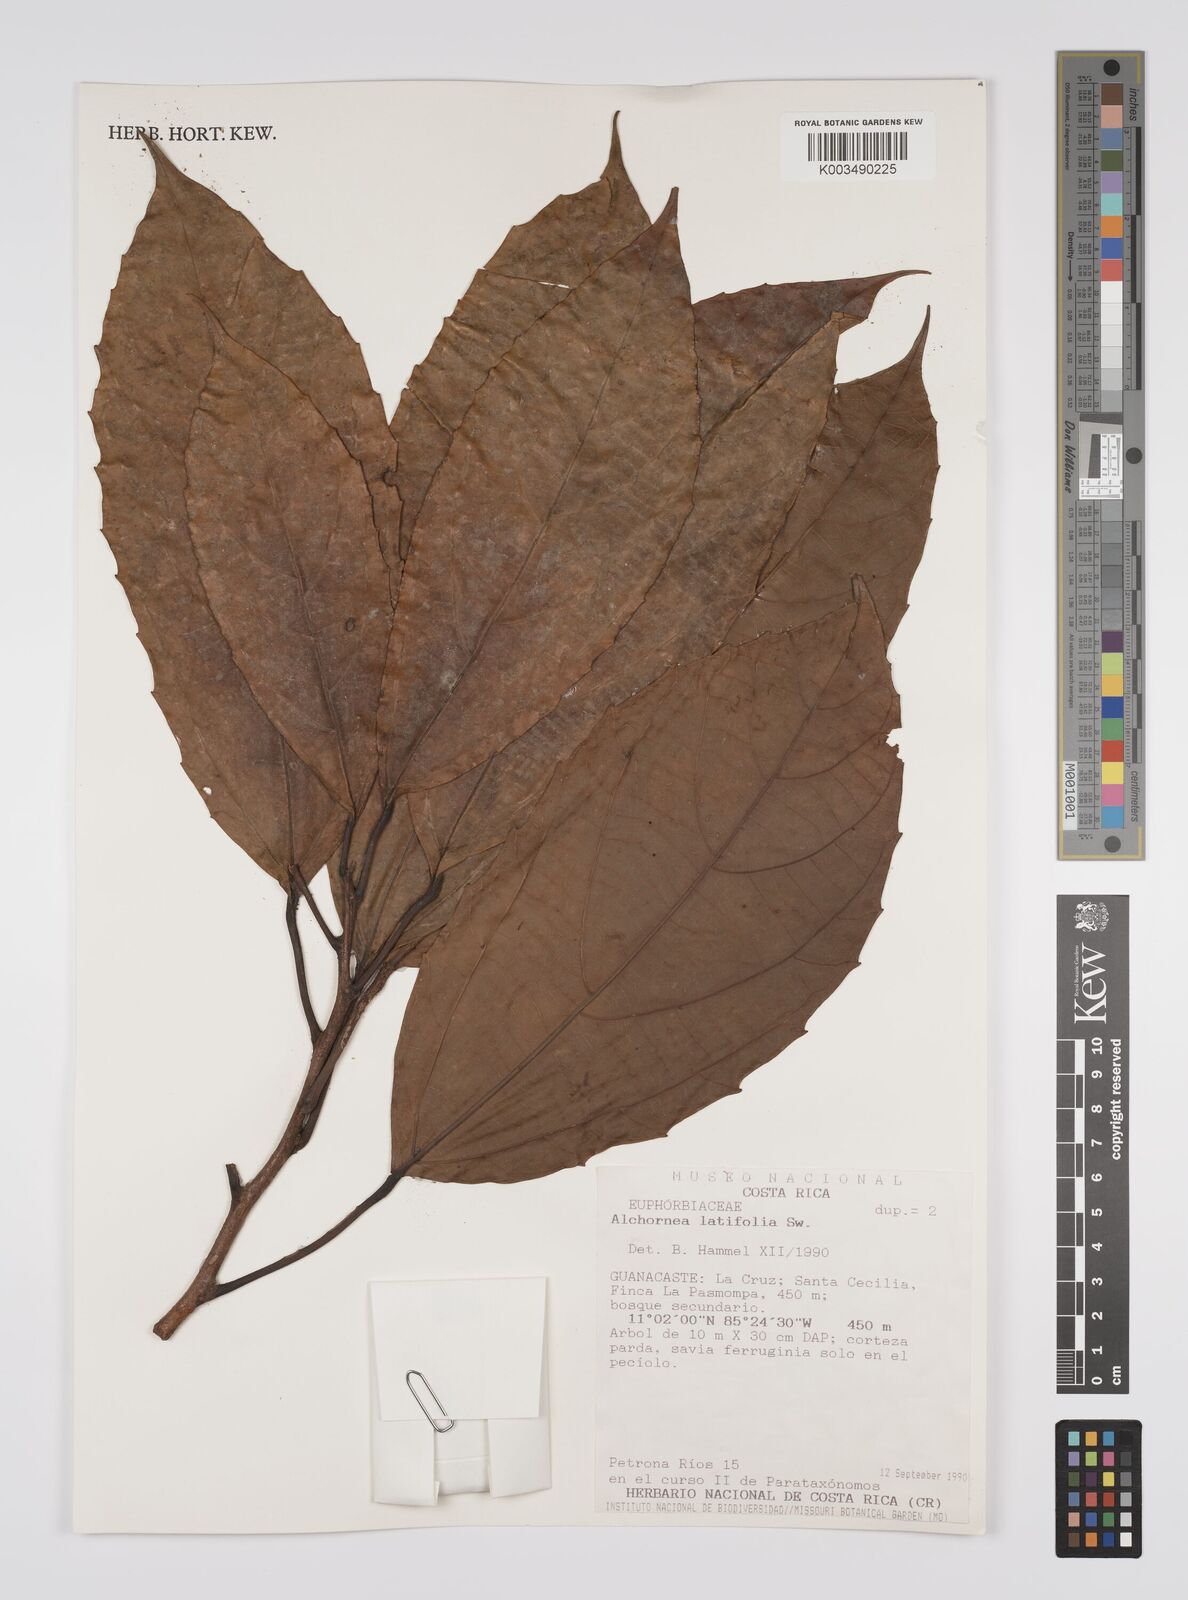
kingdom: Plantae
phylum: Tracheophyta
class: Magnoliopsida
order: Malpighiales
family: Euphorbiaceae
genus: Alchornea
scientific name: Alchornea latifolia
